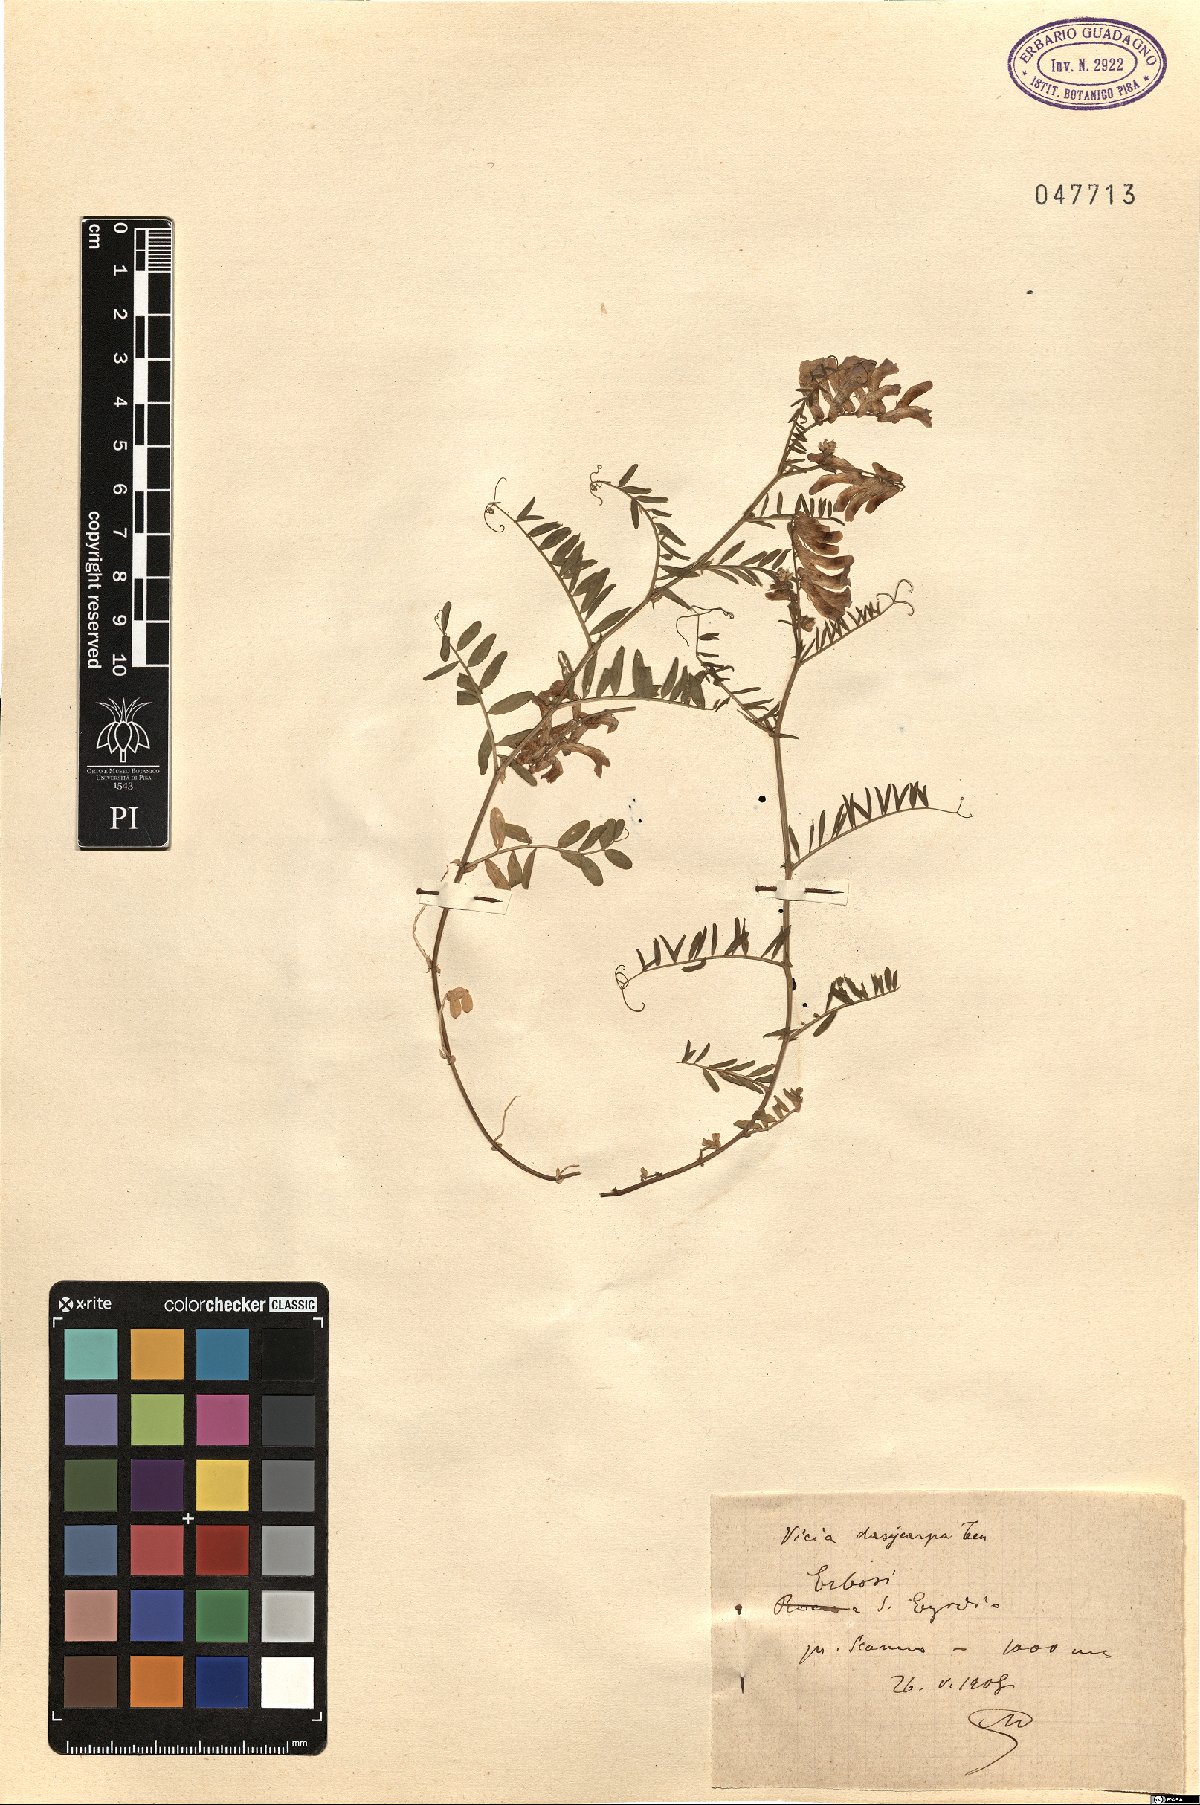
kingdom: Plantae
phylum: Tracheophyta
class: Magnoliopsida
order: Fabales
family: Fabaceae
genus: Vicia
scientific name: Vicia villosa
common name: Fodder vetch
